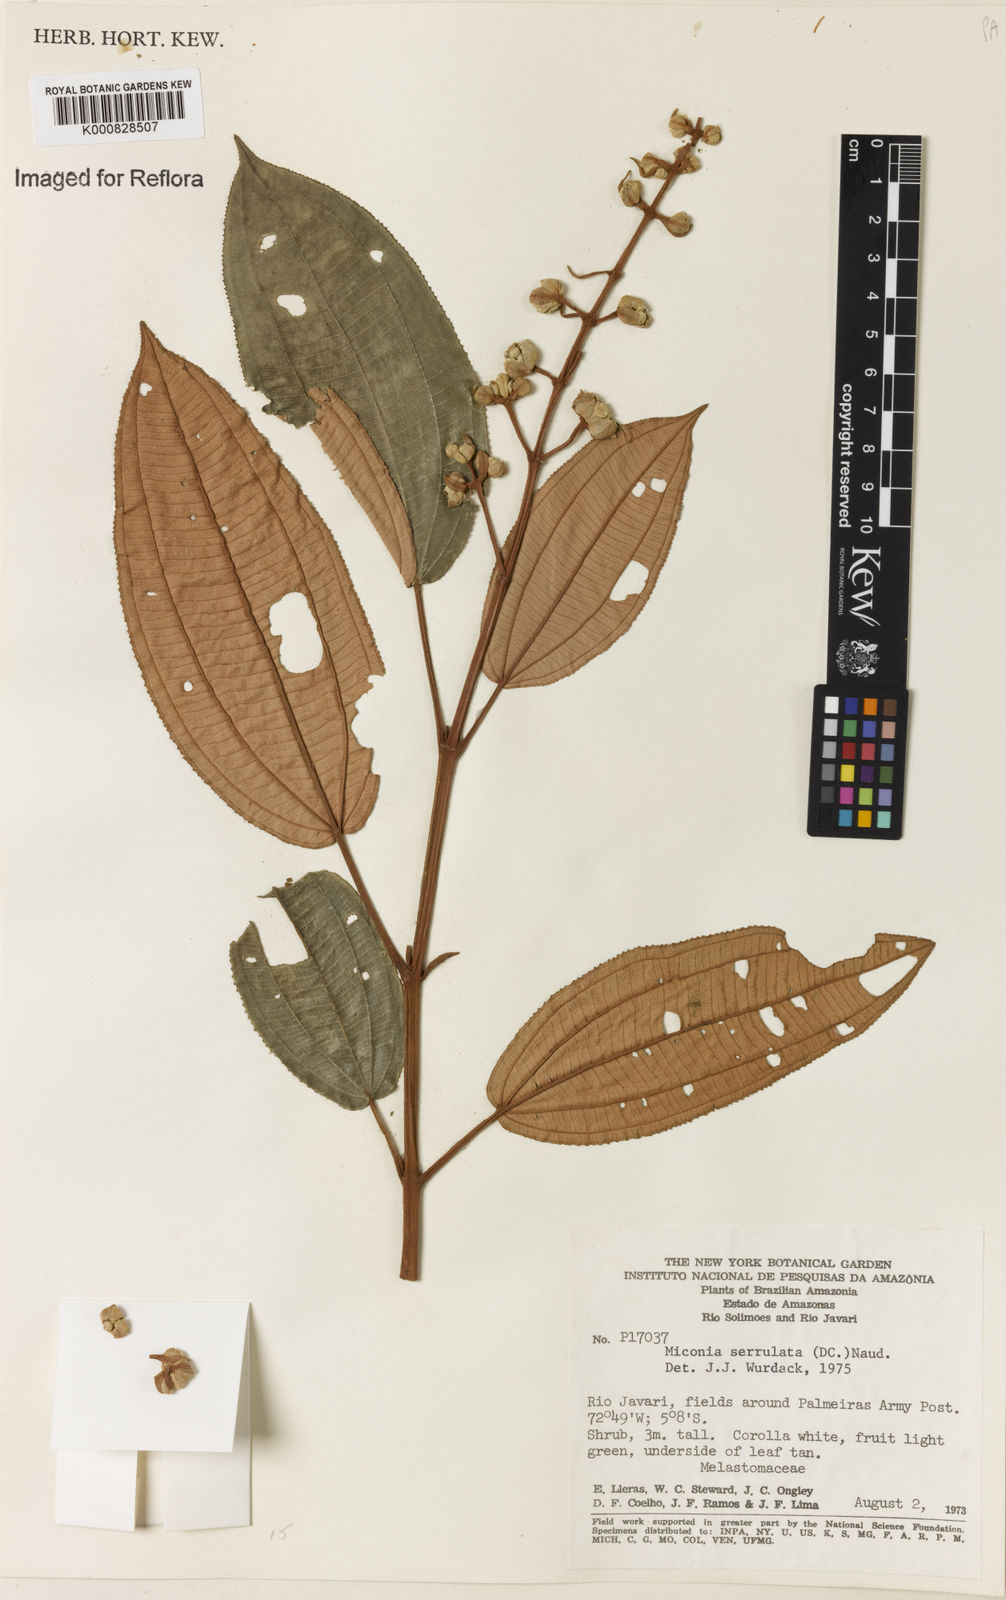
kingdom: Plantae
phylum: Tracheophyta
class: Magnoliopsida
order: Myrtales
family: Melastomataceae
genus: Miconia
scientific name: Miconia serrulata
